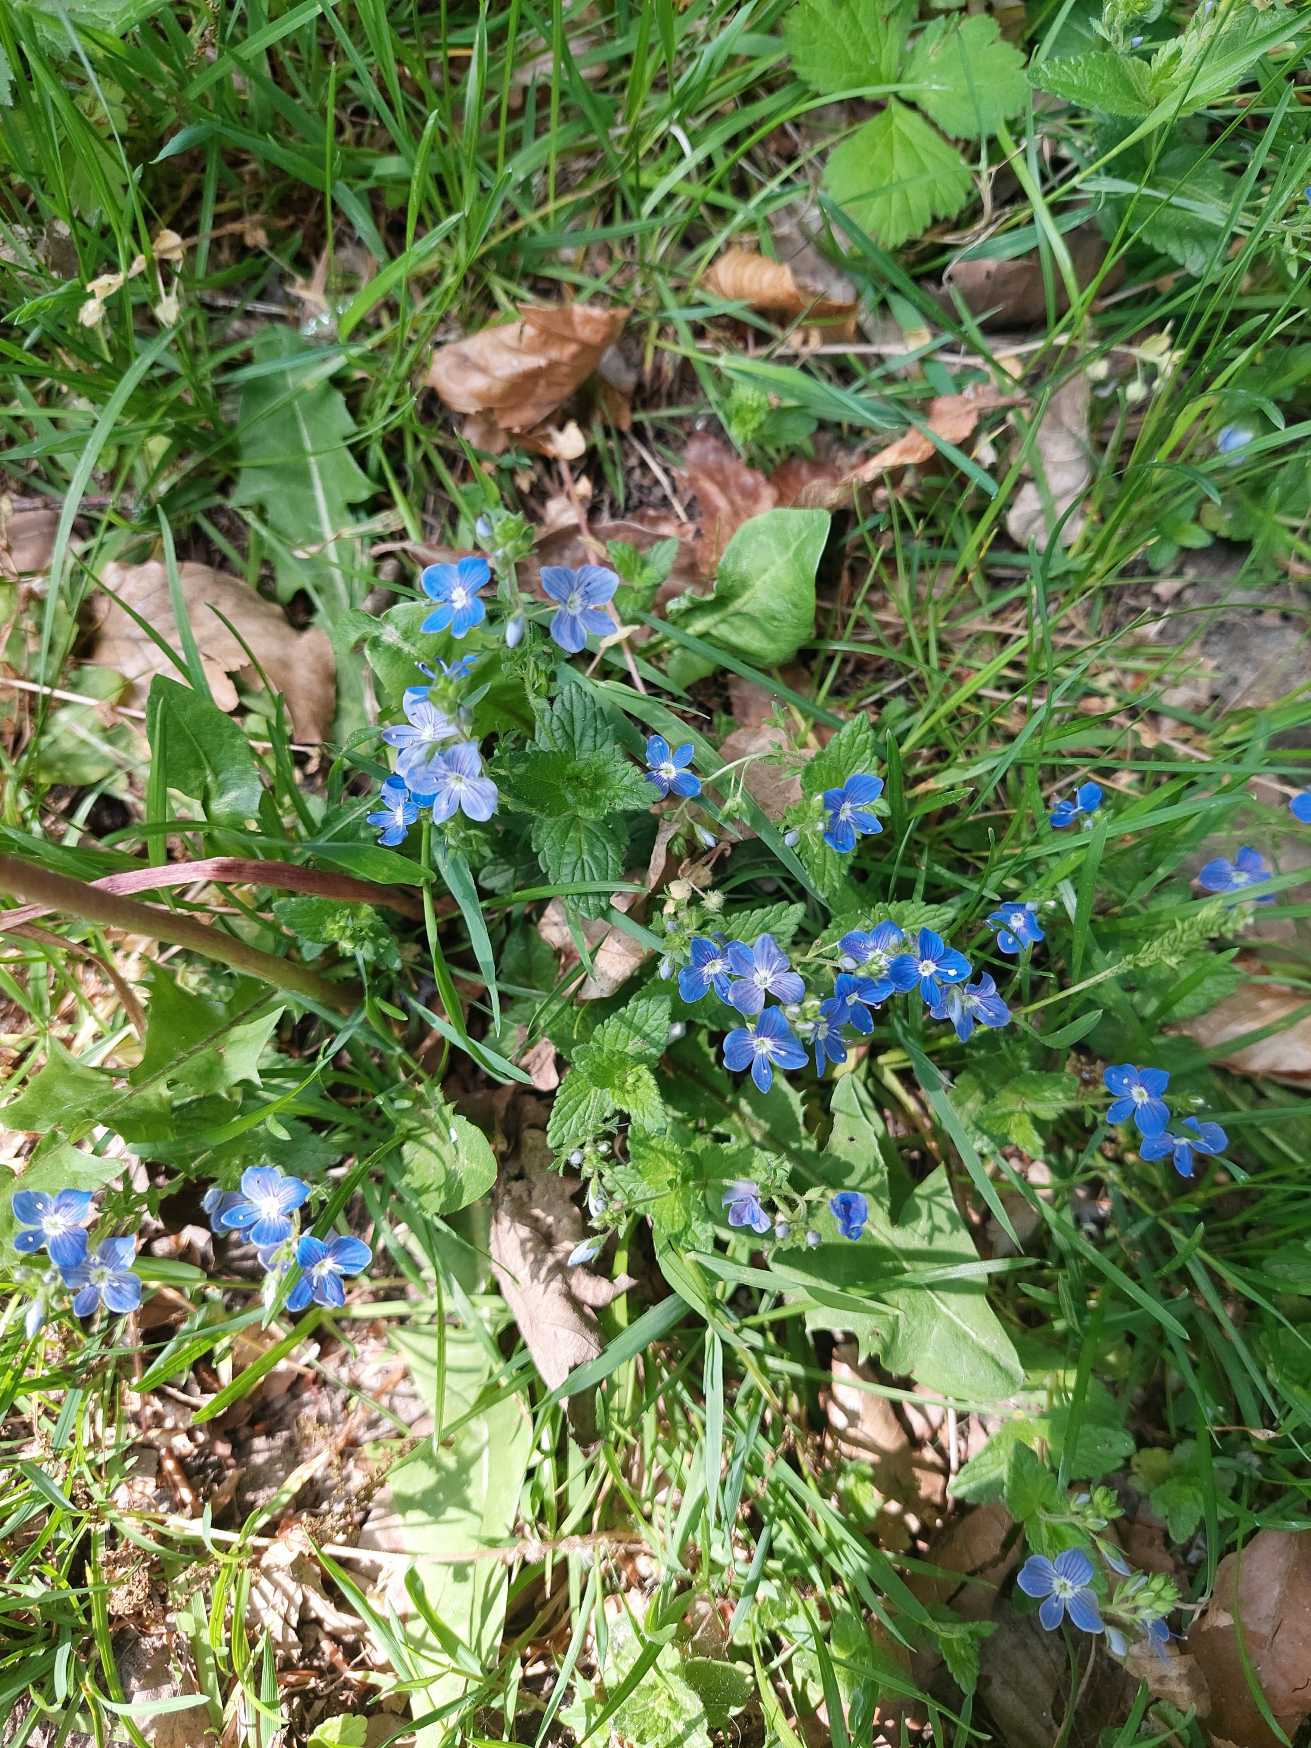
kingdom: Plantae
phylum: Tracheophyta
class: Magnoliopsida
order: Lamiales
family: Plantaginaceae
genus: Veronica
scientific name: Veronica chamaedrys
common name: Tveskægget ærenpris
